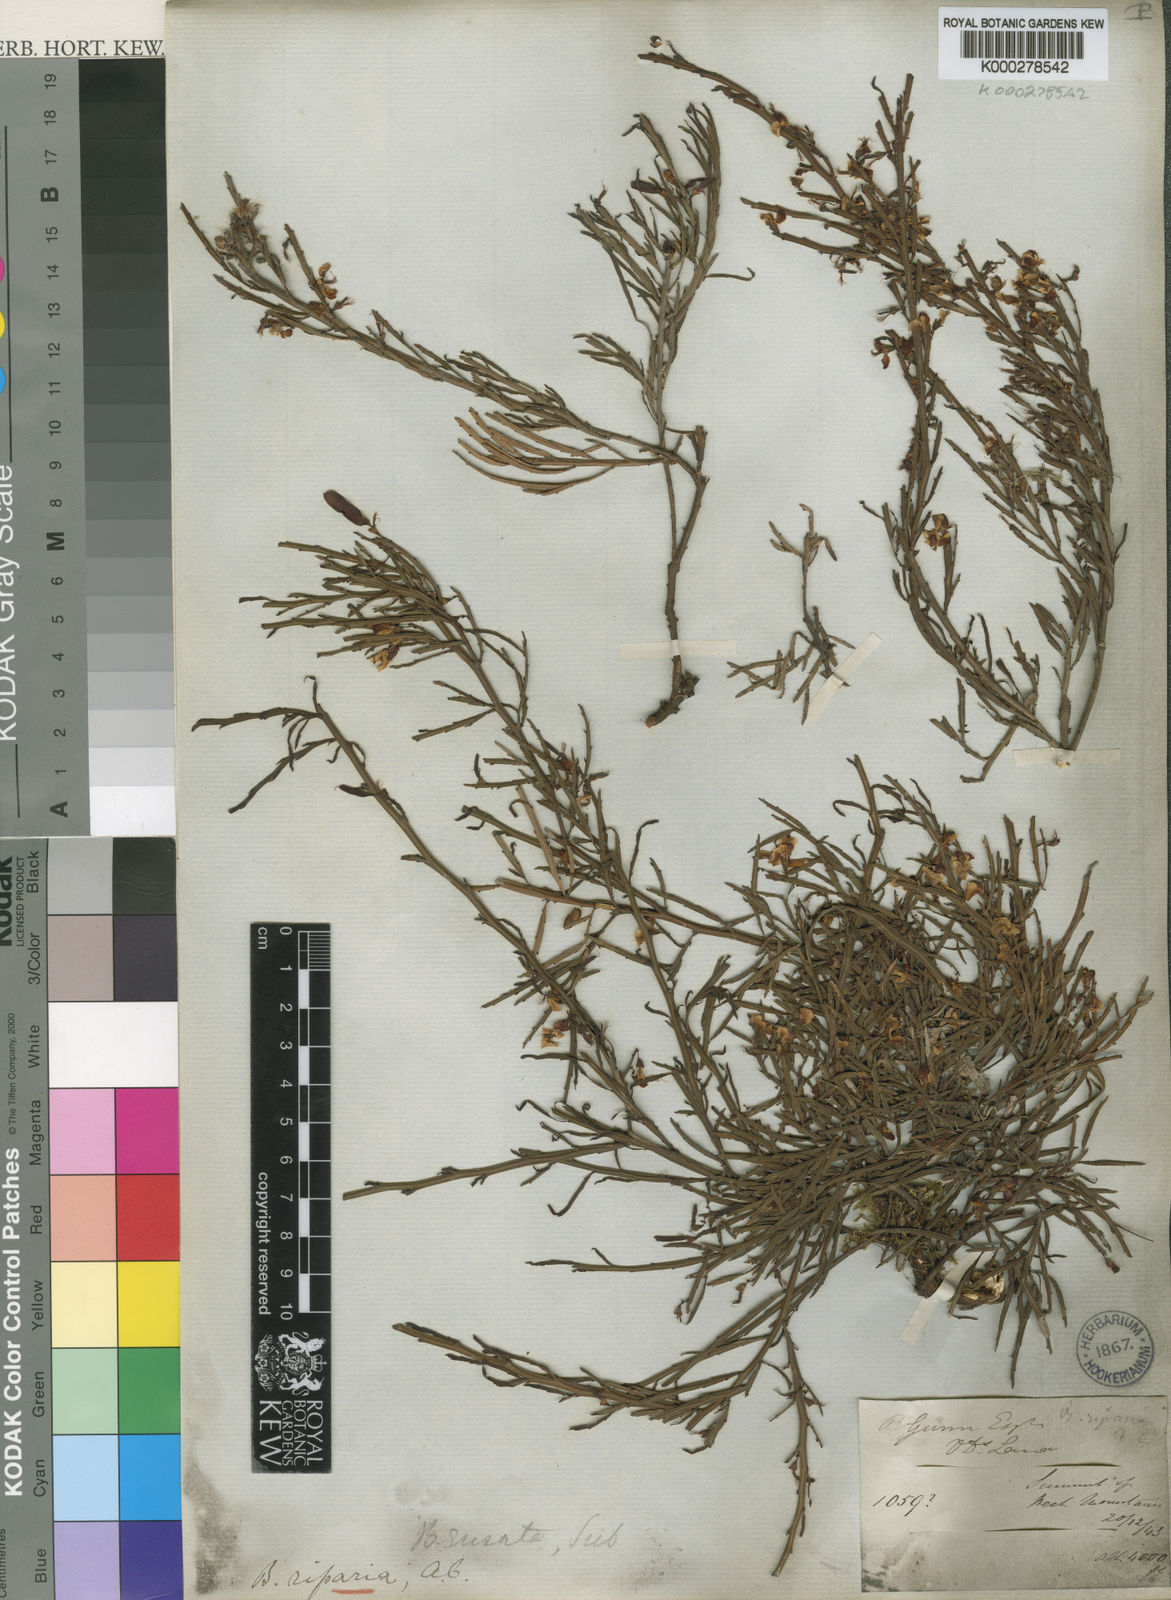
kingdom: Plantae
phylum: Tracheophyta
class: Magnoliopsida
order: Fabales
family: Fabaceae
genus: Bossiaea
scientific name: Bossiaea riparia
